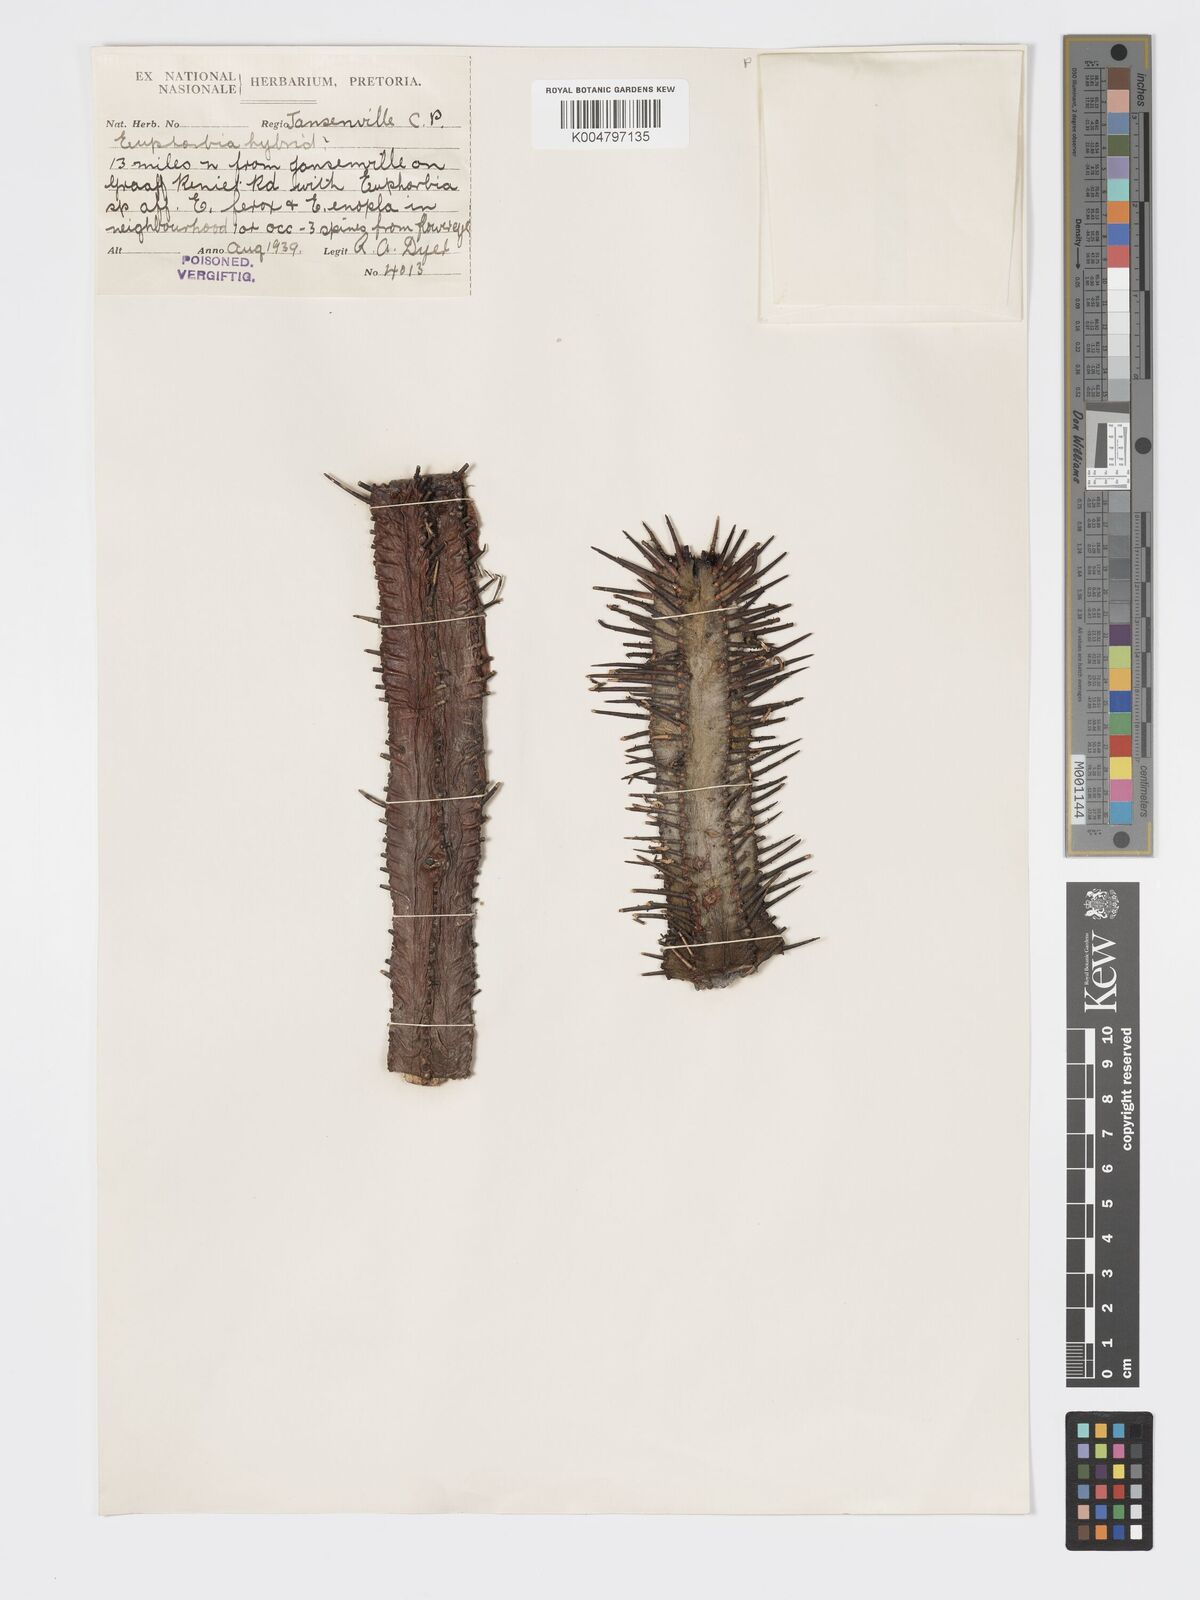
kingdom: Plantae
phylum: Tracheophyta
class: Magnoliopsida
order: Malpighiales
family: Euphorbiaceae
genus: Euphorbia
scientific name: Euphorbia
